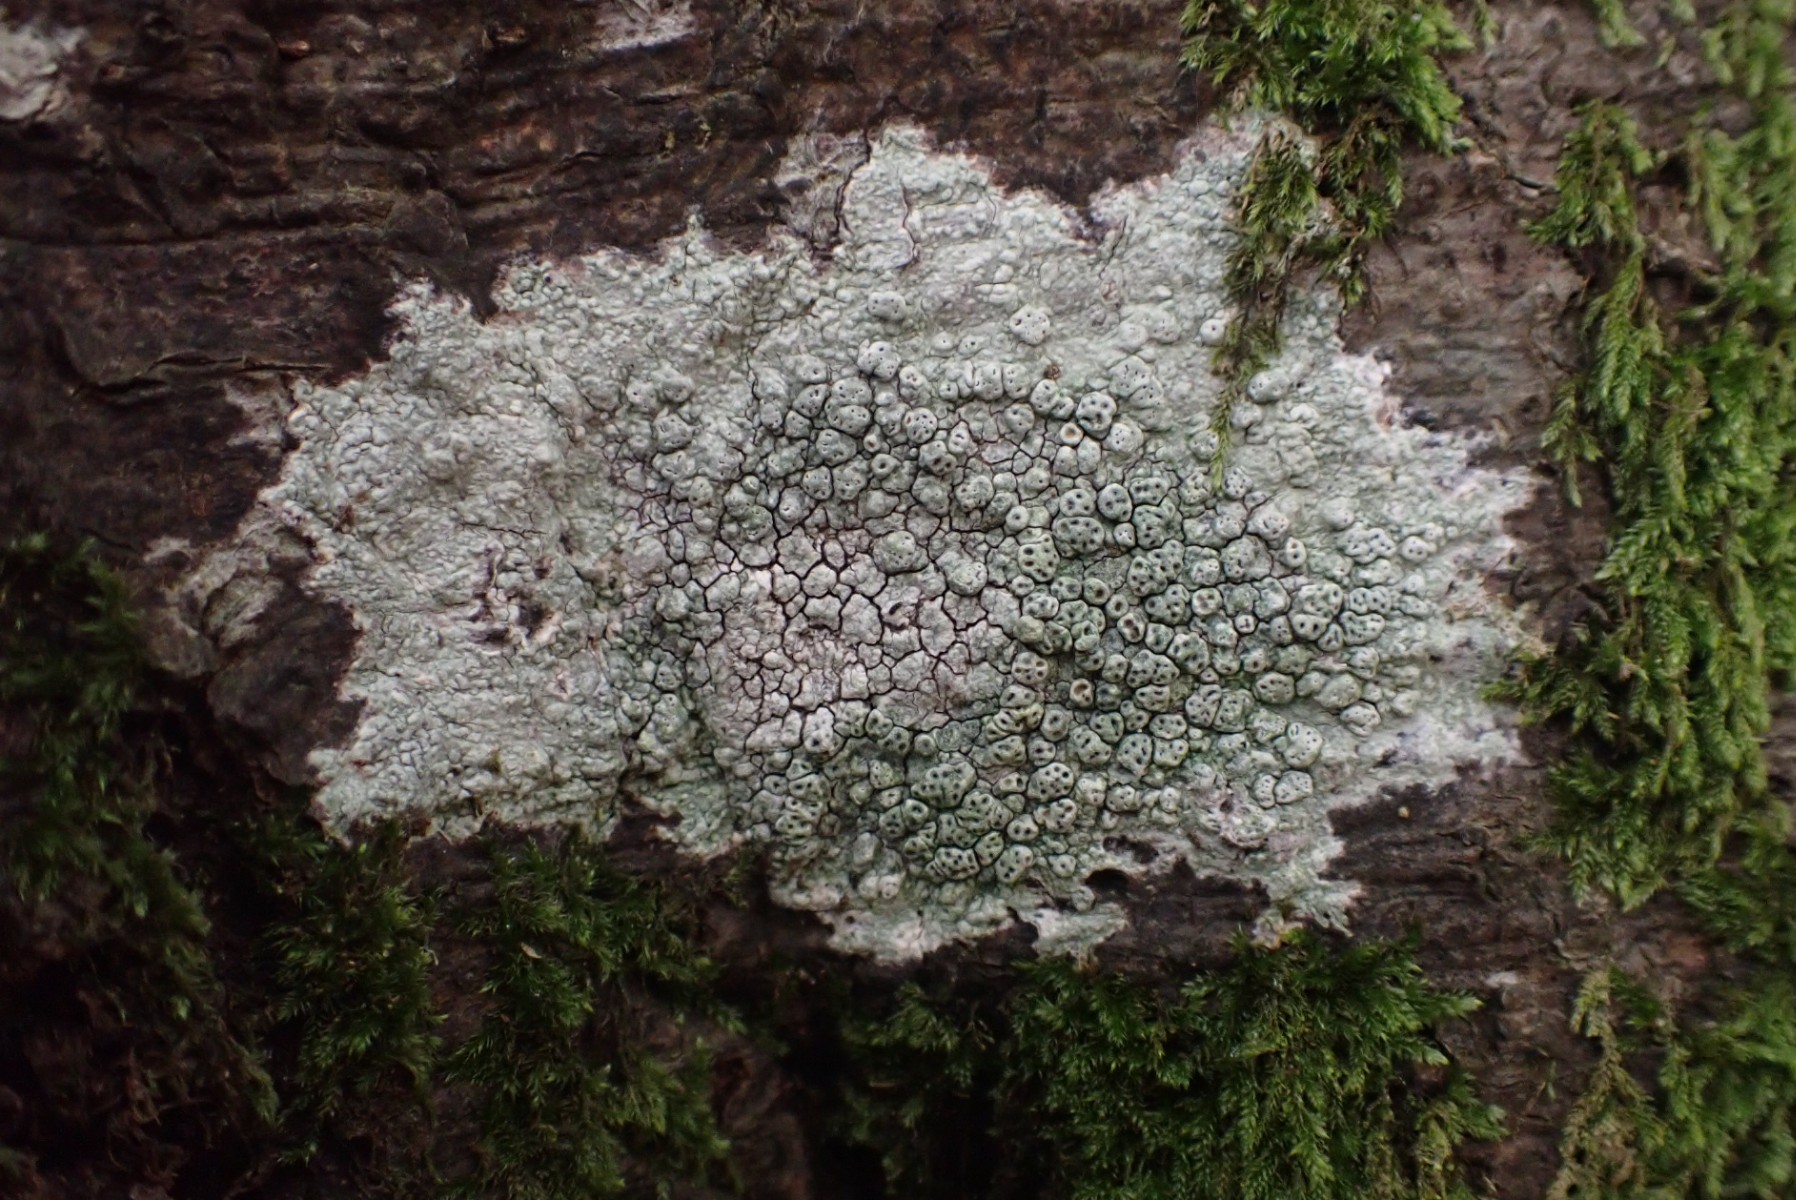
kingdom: Fungi
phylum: Ascomycota
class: Lecanoromycetes
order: Pertusariales
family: Pertusariaceae
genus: Pertusaria
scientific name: Pertusaria pertusa
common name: almindelig prikvortelav
